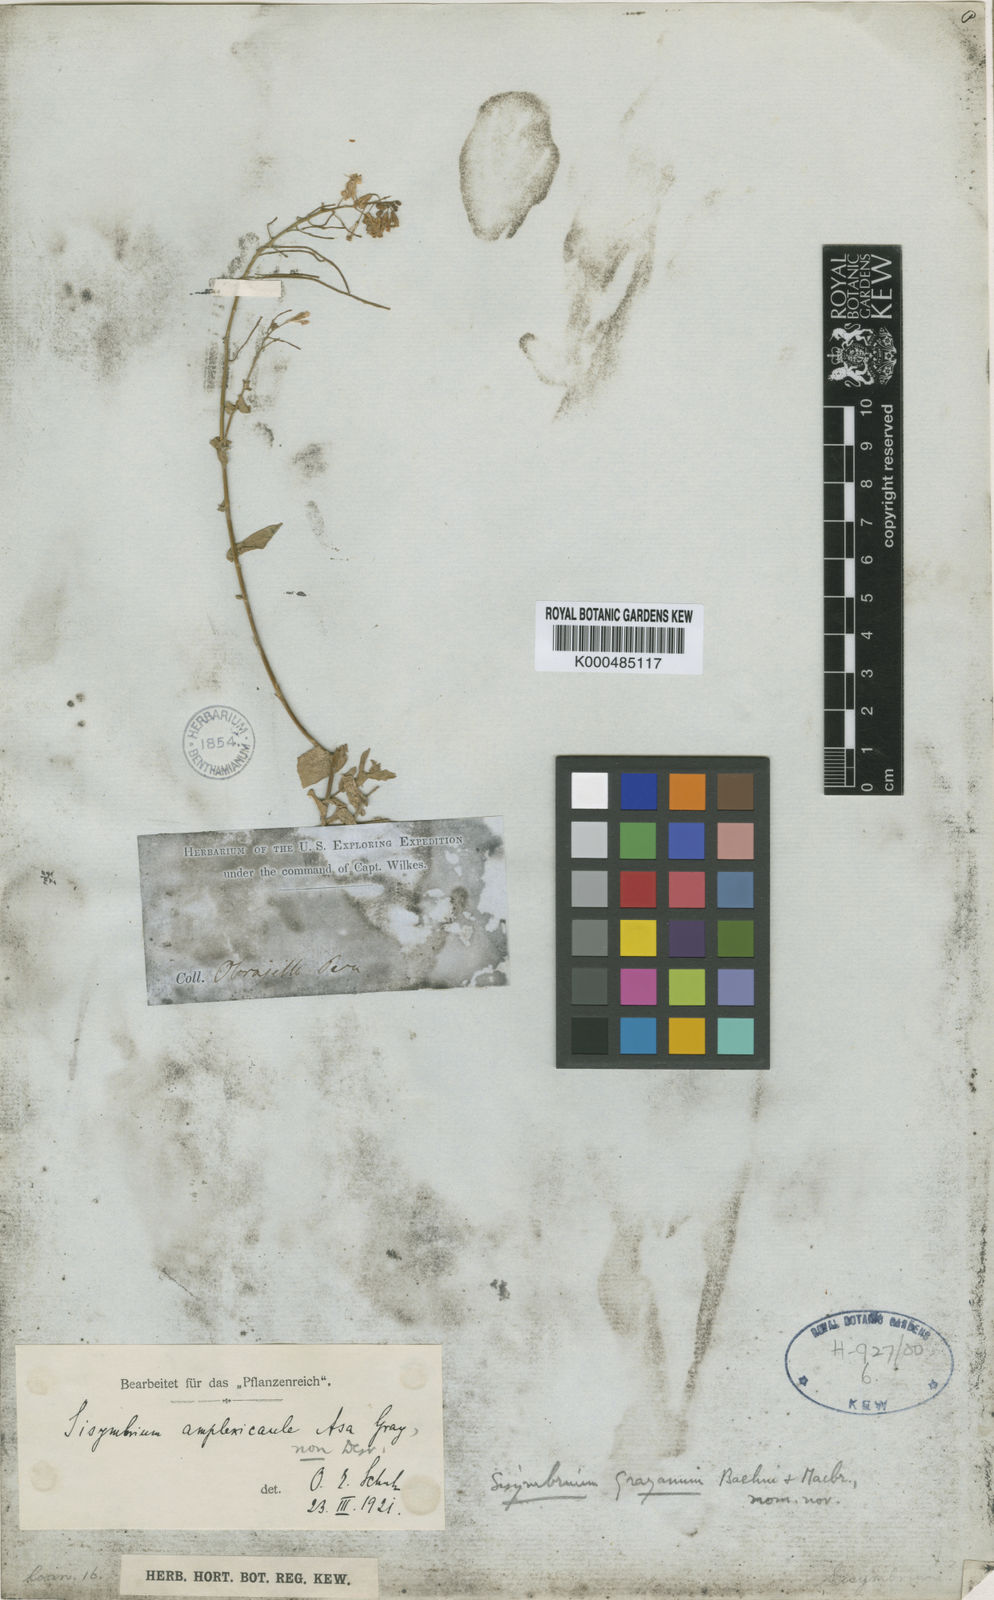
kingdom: Plantae
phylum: Tracheophyta
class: Magnoliopsida
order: Brassicales
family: Brassicaceae
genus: Neuontobotrys
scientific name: Neuontobotrys amplexicaulis
